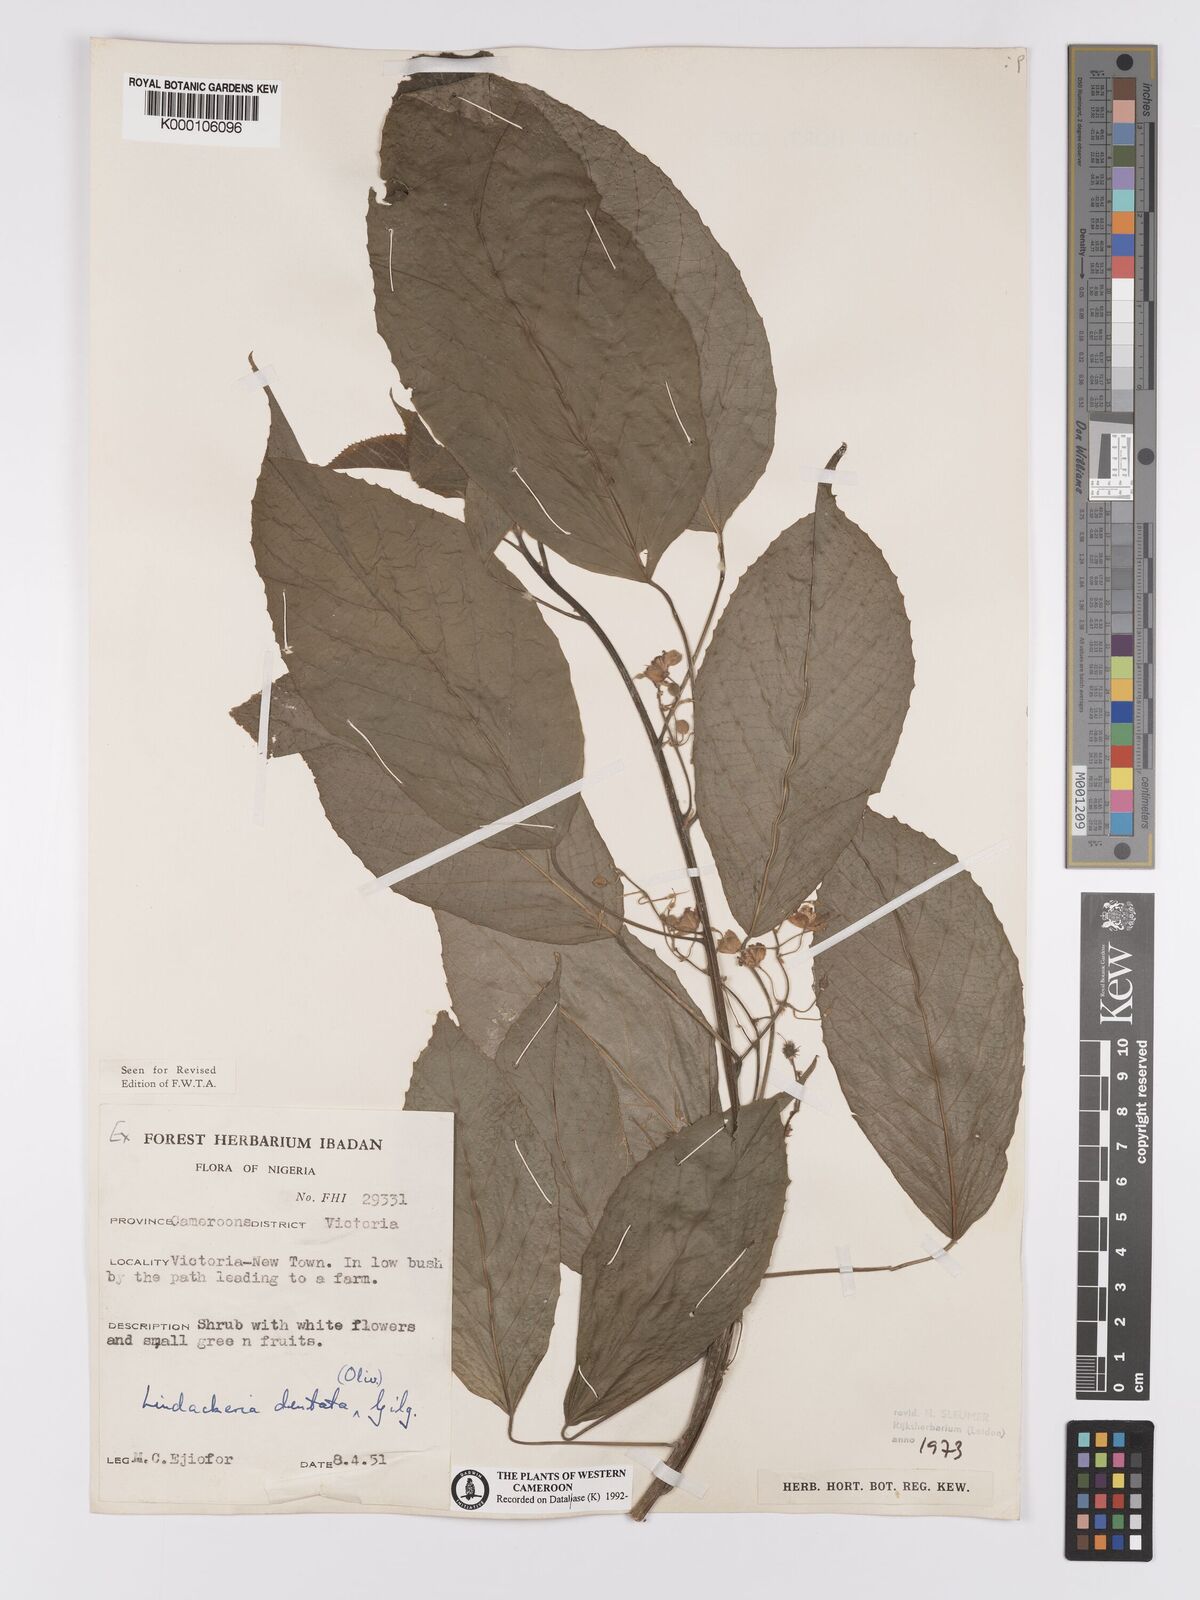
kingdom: Plantae
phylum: Tracheophyta
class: Magnoliopsida
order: Malpighiales
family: Achariaceae
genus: Lindackeria
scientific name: Lindackeria dentata
